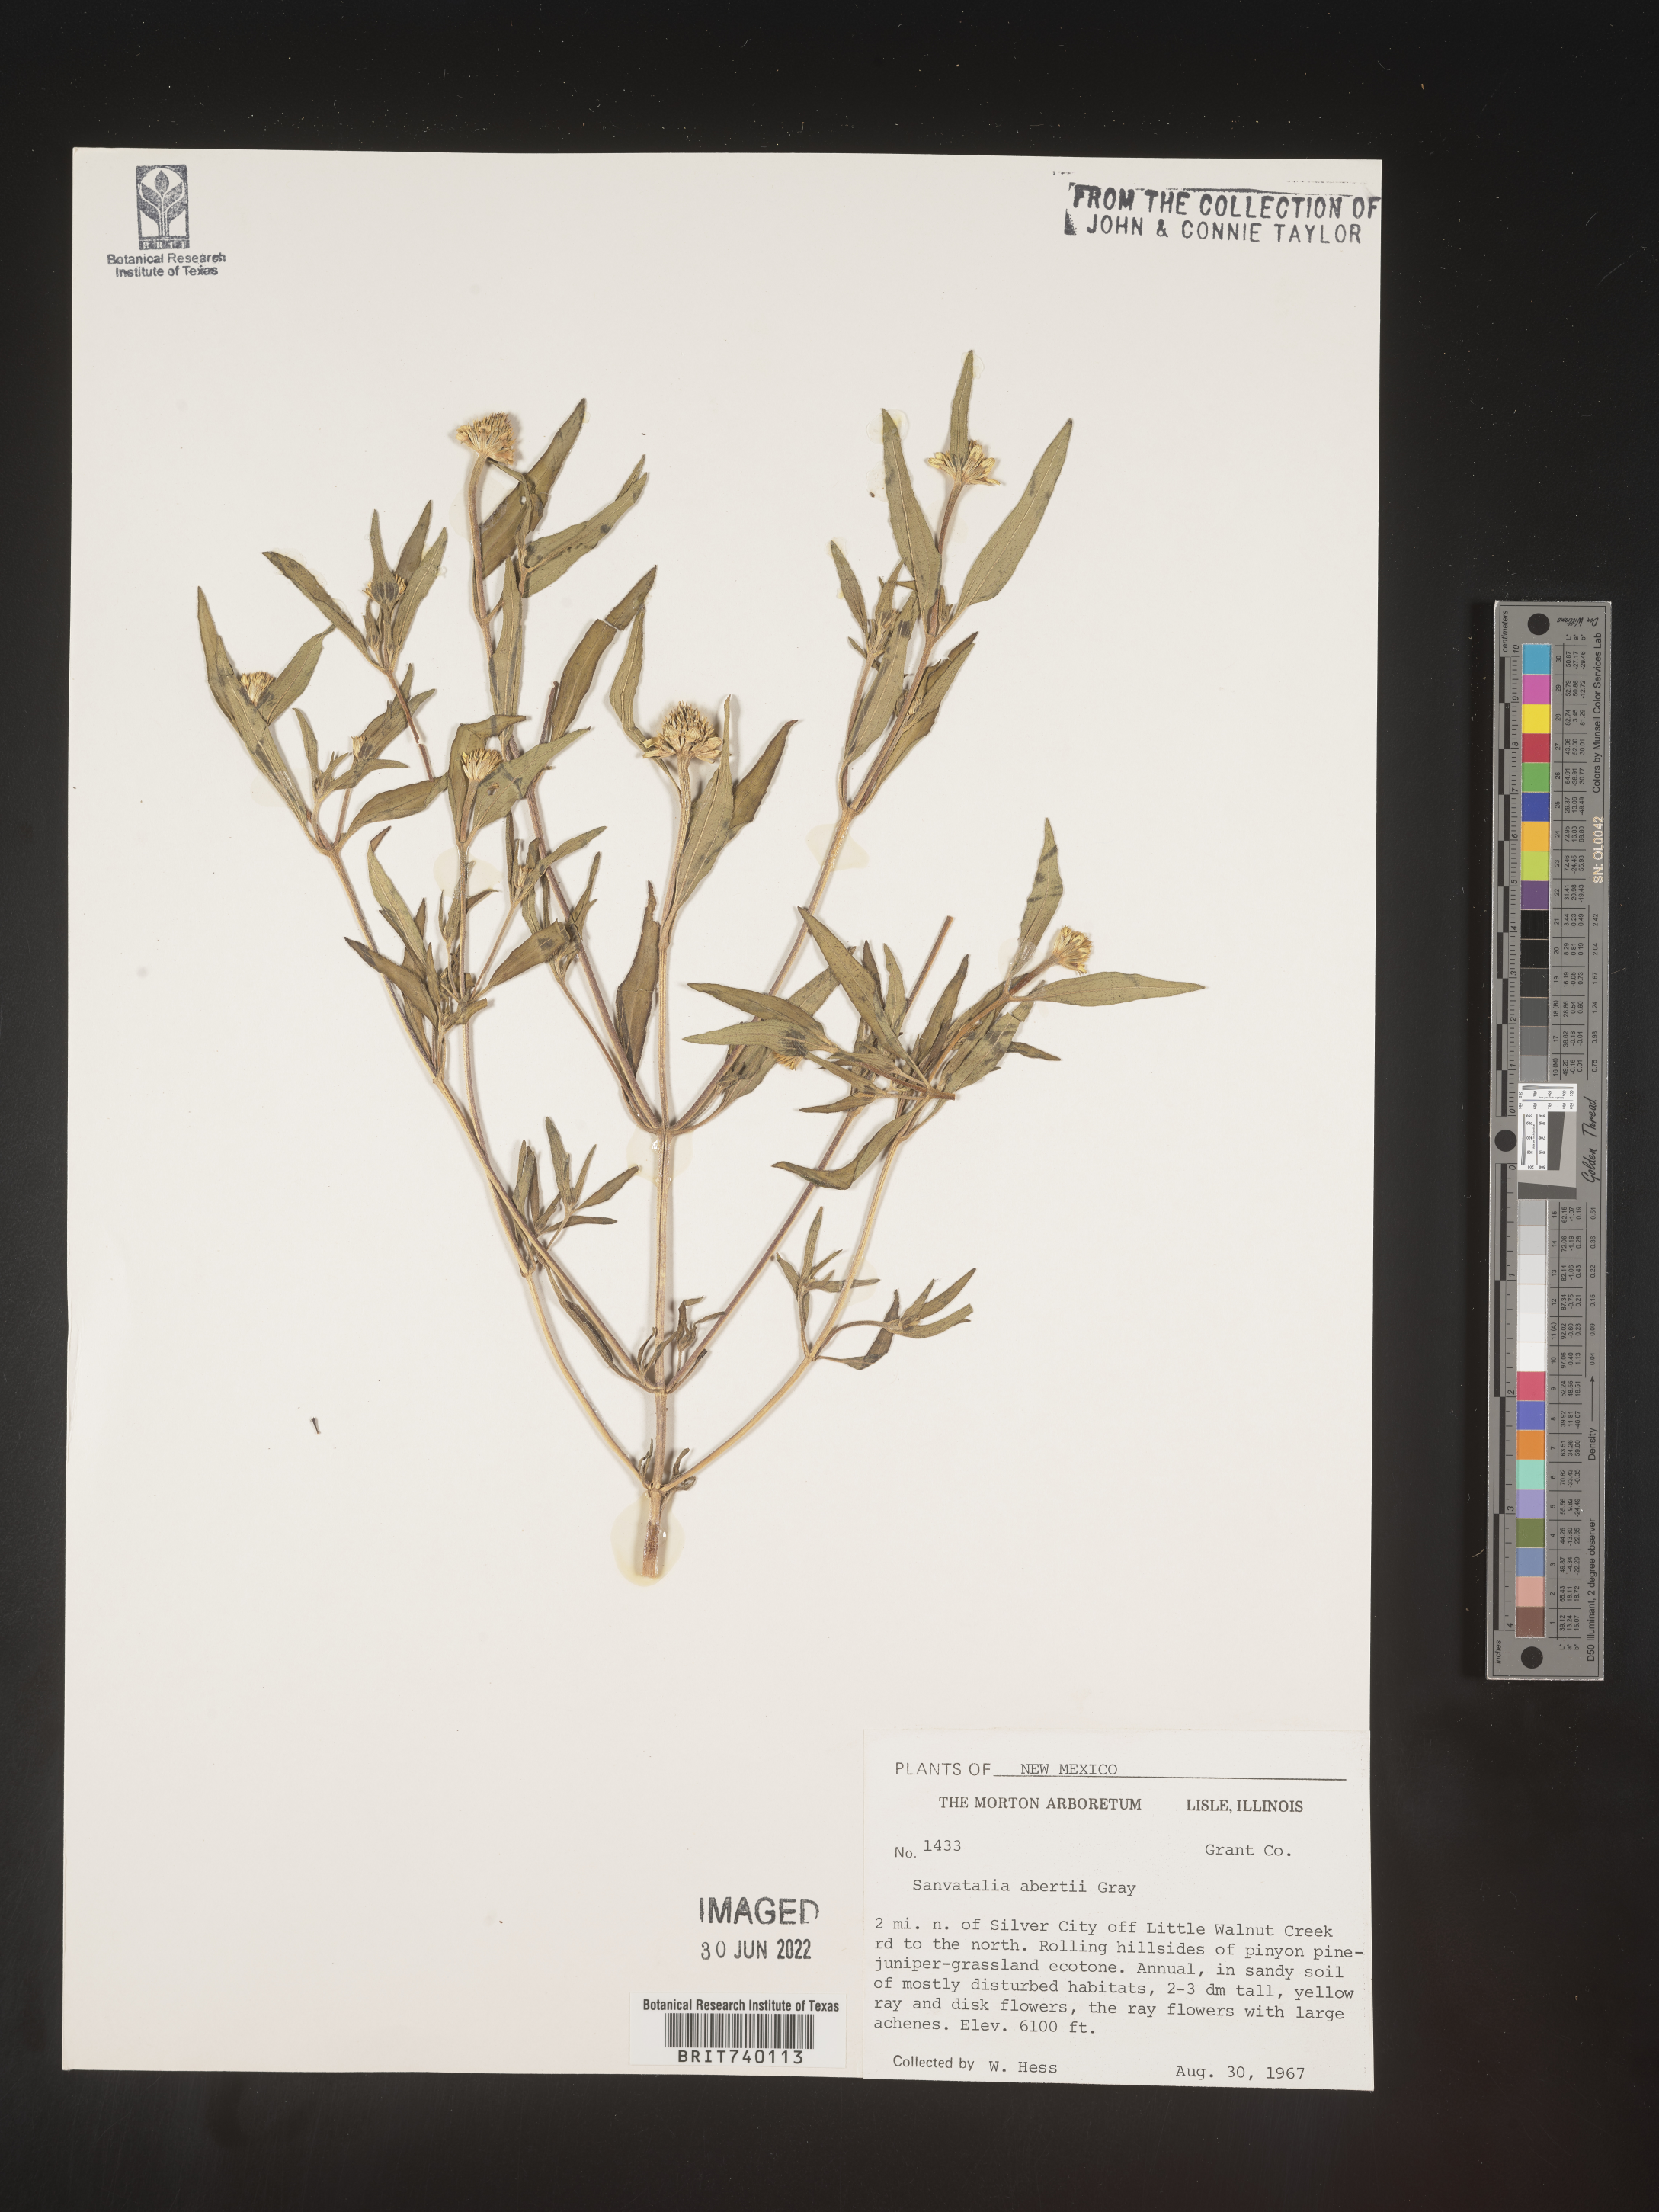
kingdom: Plantae
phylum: Tracheophyta
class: Magnoliopsida
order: Asterales
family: Asteraceae
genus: Sanvitalia
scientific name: Sanvitalia
